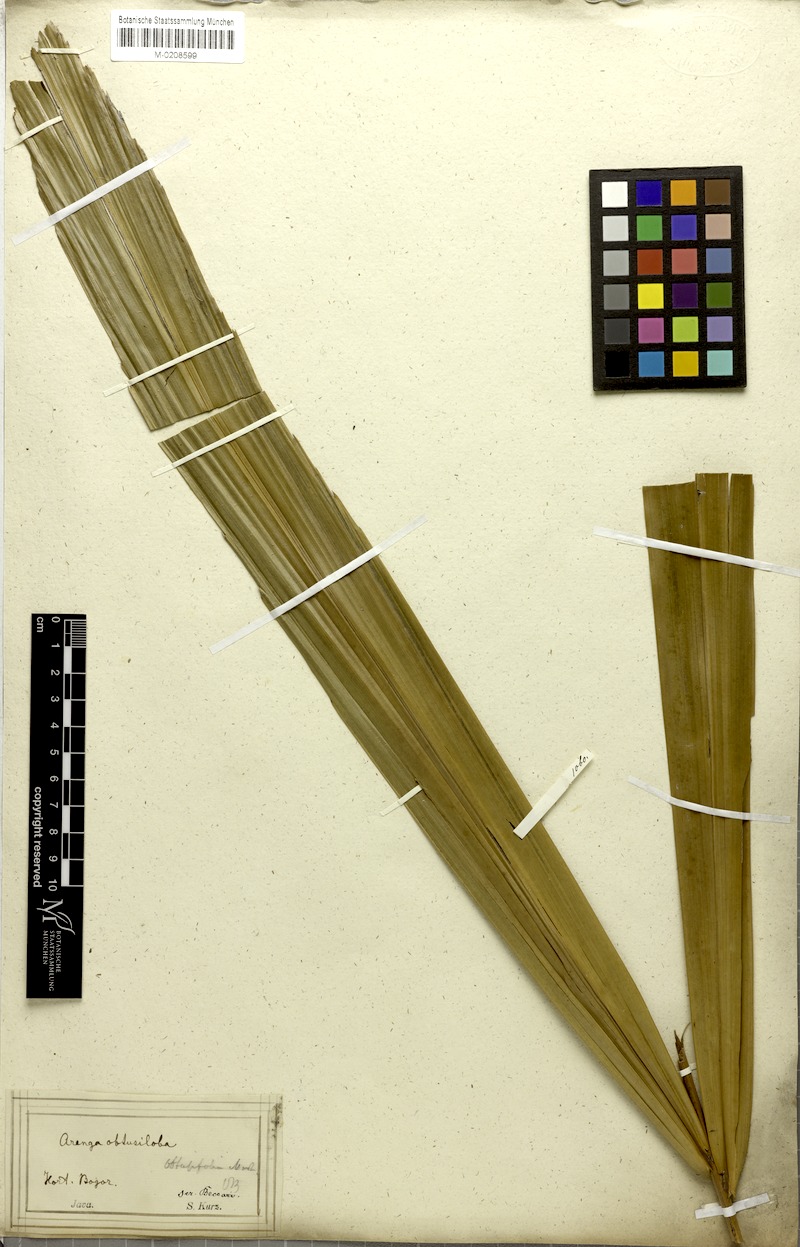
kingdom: Plantae
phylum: Tracheophyta
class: Liliopsida
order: Arecales
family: Arecaceae
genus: Arenga
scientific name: Arenga obtusifolia
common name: Lang kap
